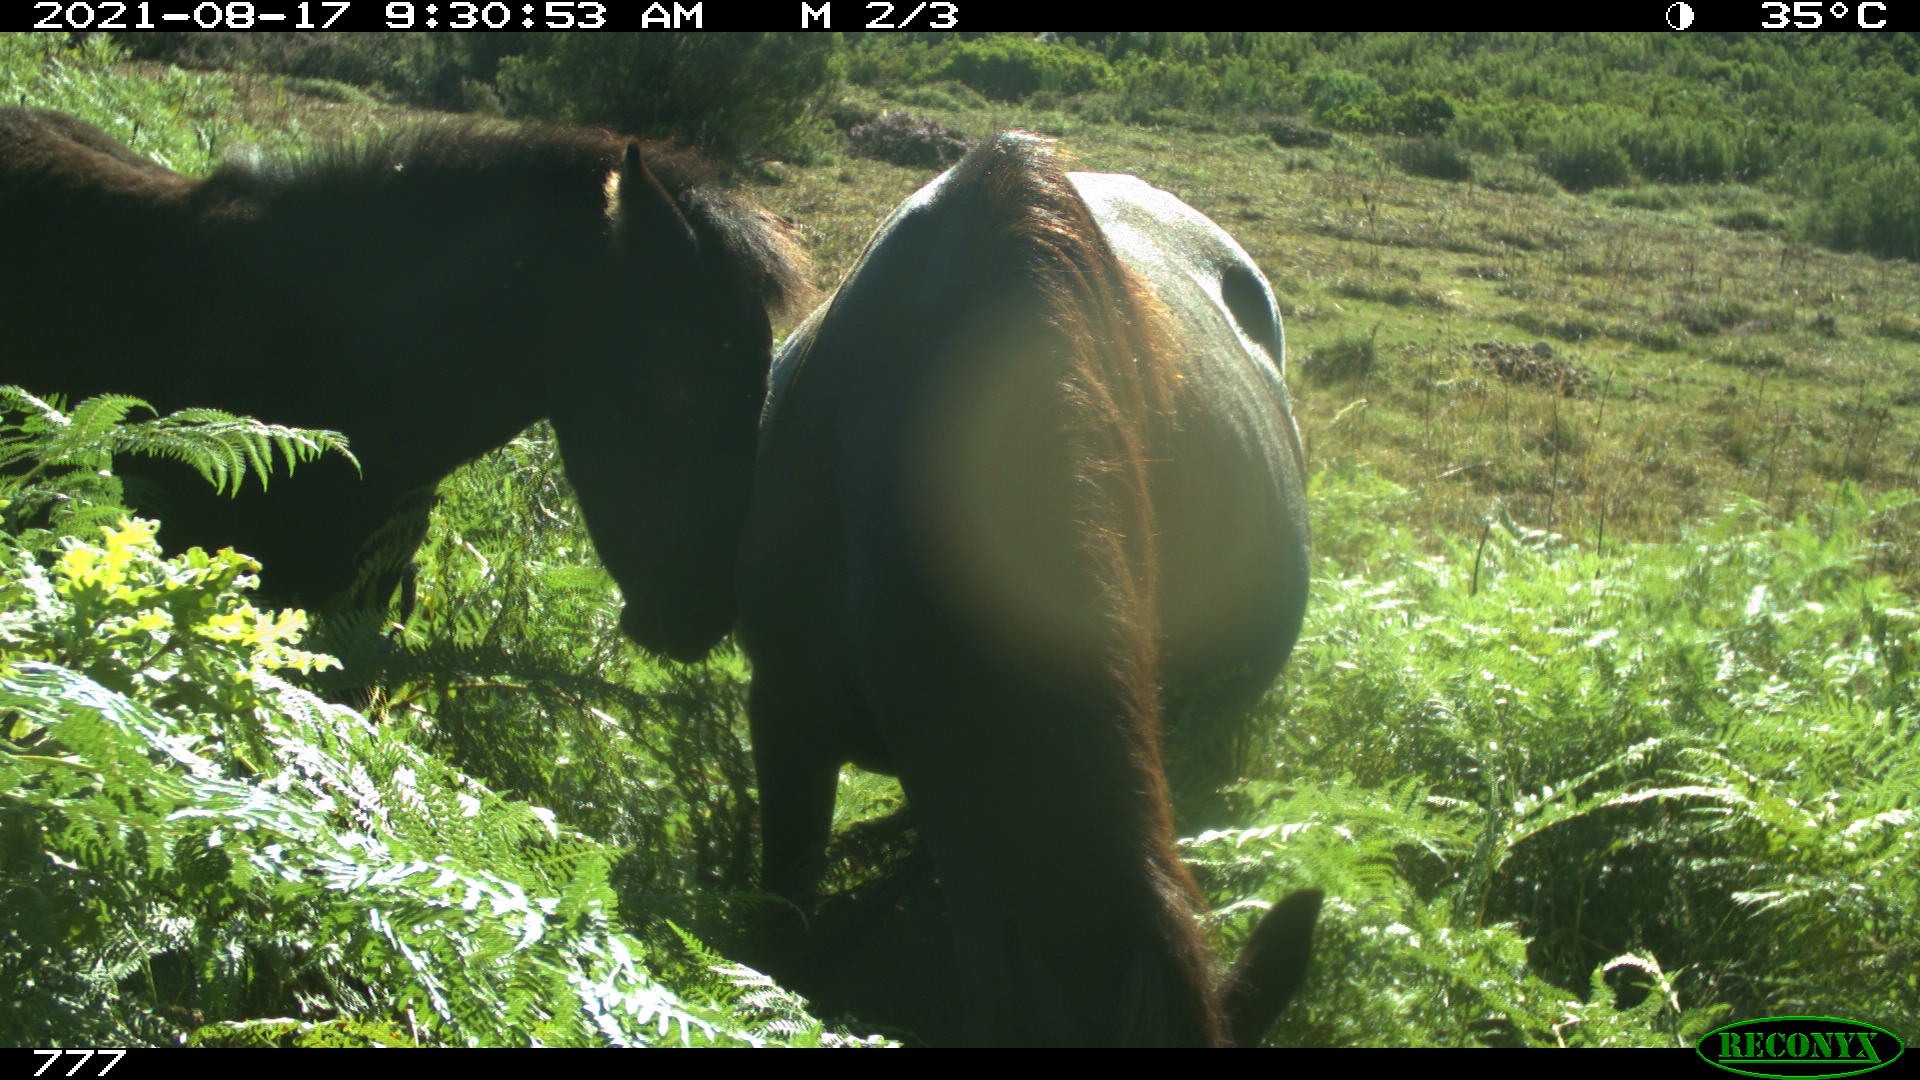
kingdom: Animalia
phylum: Chordata
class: Mammalia
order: Perissodactyla
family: Equidae
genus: Equus
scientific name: Equus caballus
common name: Horse
